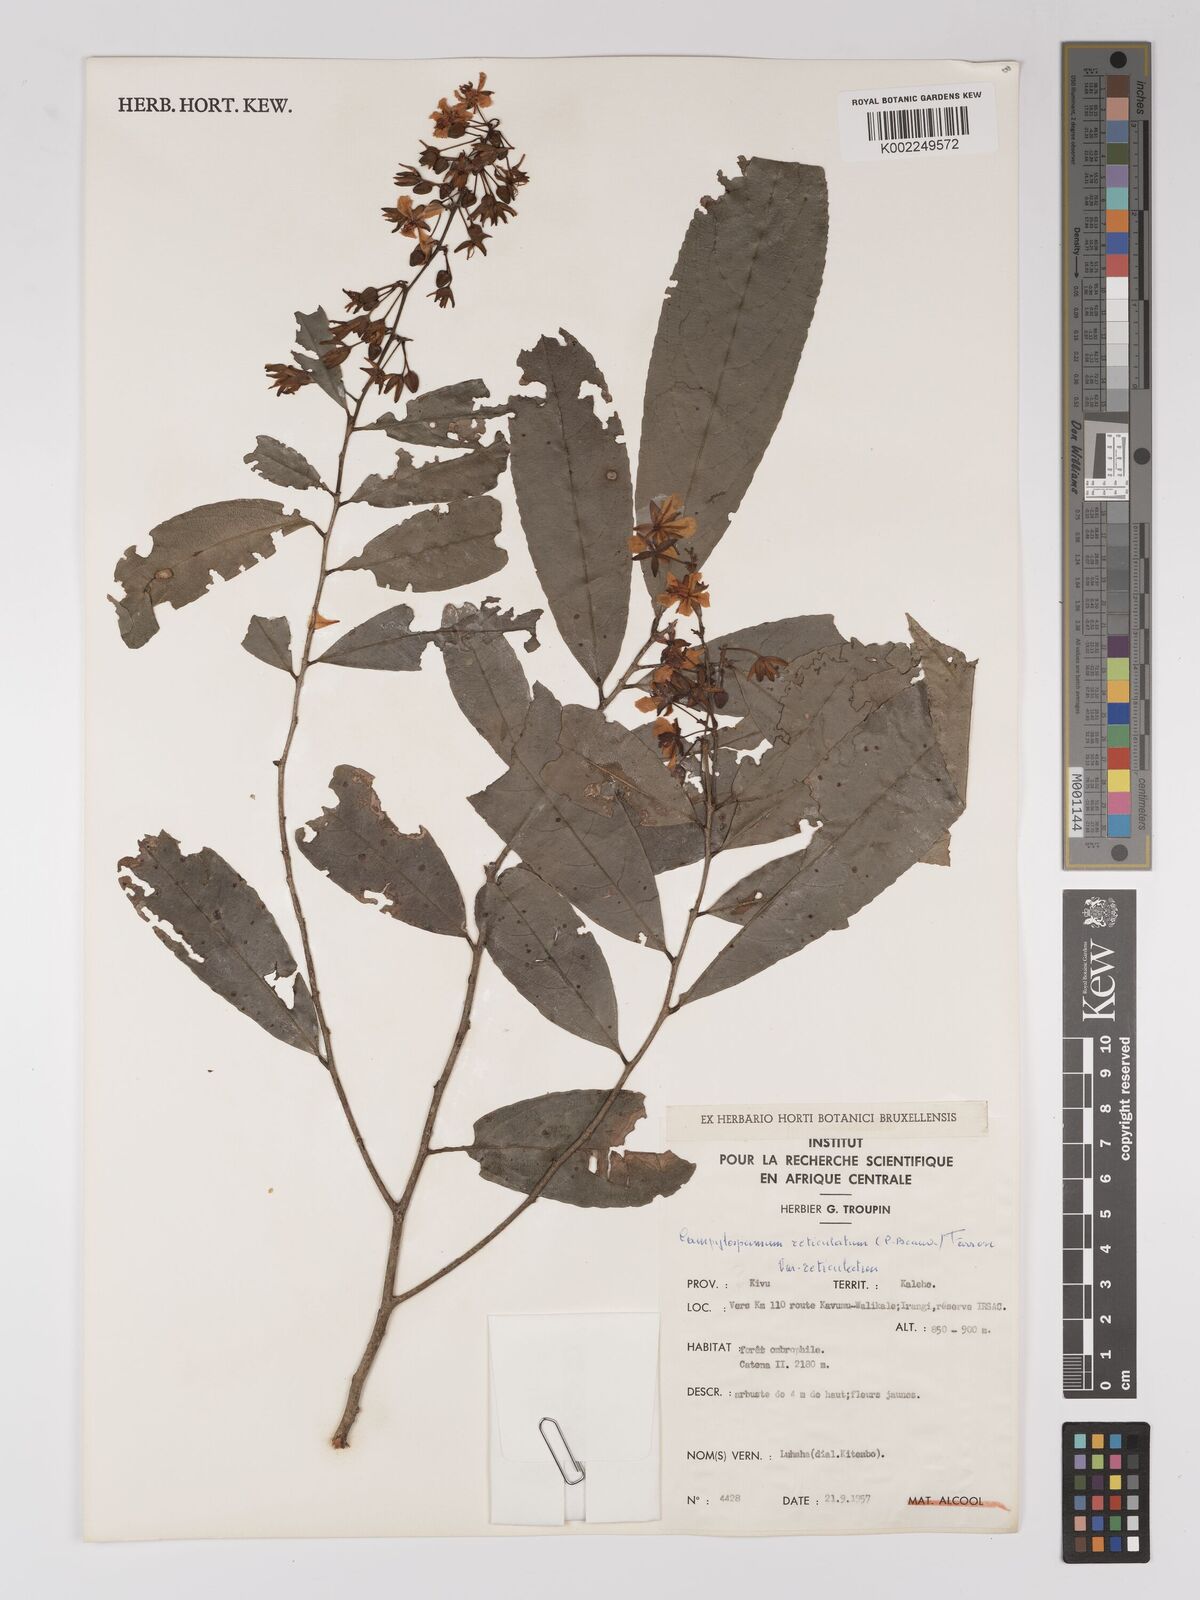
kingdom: Plantae
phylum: Tracheophyta
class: Magnoliopsida
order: Malpighiales
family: Ochnaceae
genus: Campylospermum
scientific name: Campylospermum reticulatum
